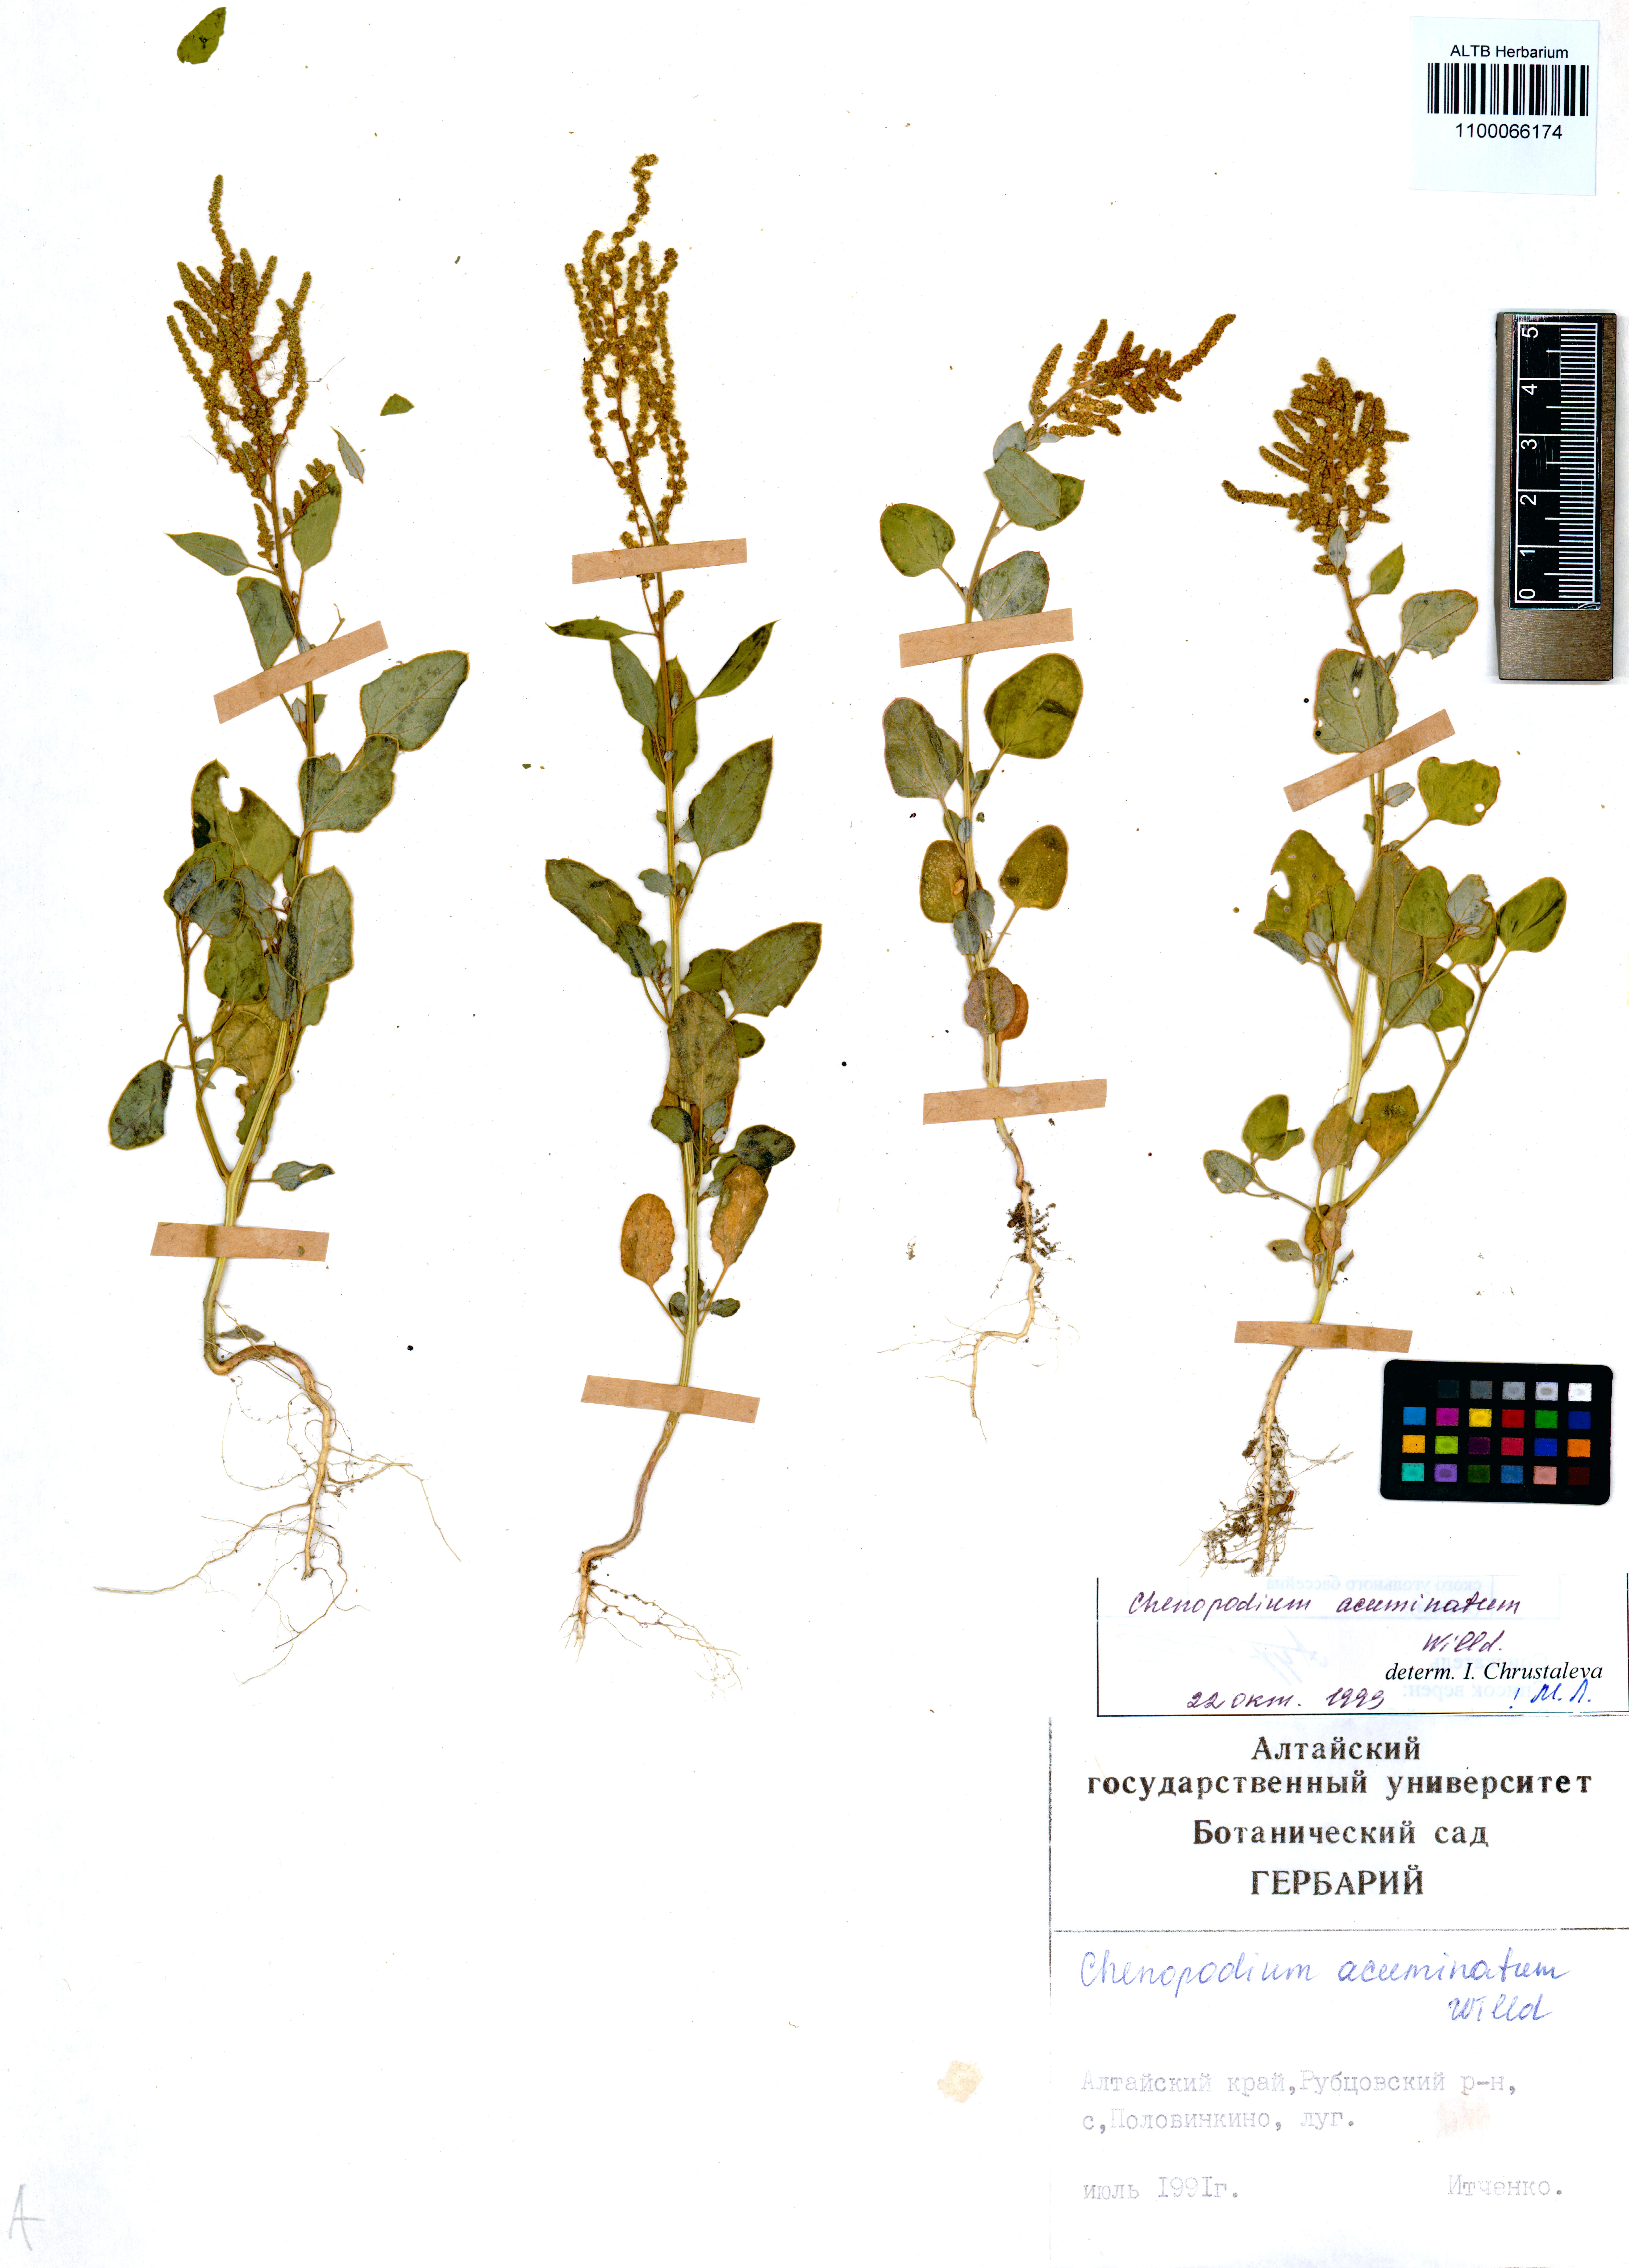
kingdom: Plantae
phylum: Tracheophyta
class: Magnoliopsida
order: Caryophyllales
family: Amaranthaceae
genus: Chenopodium
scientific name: Chenopodium acuminatum
